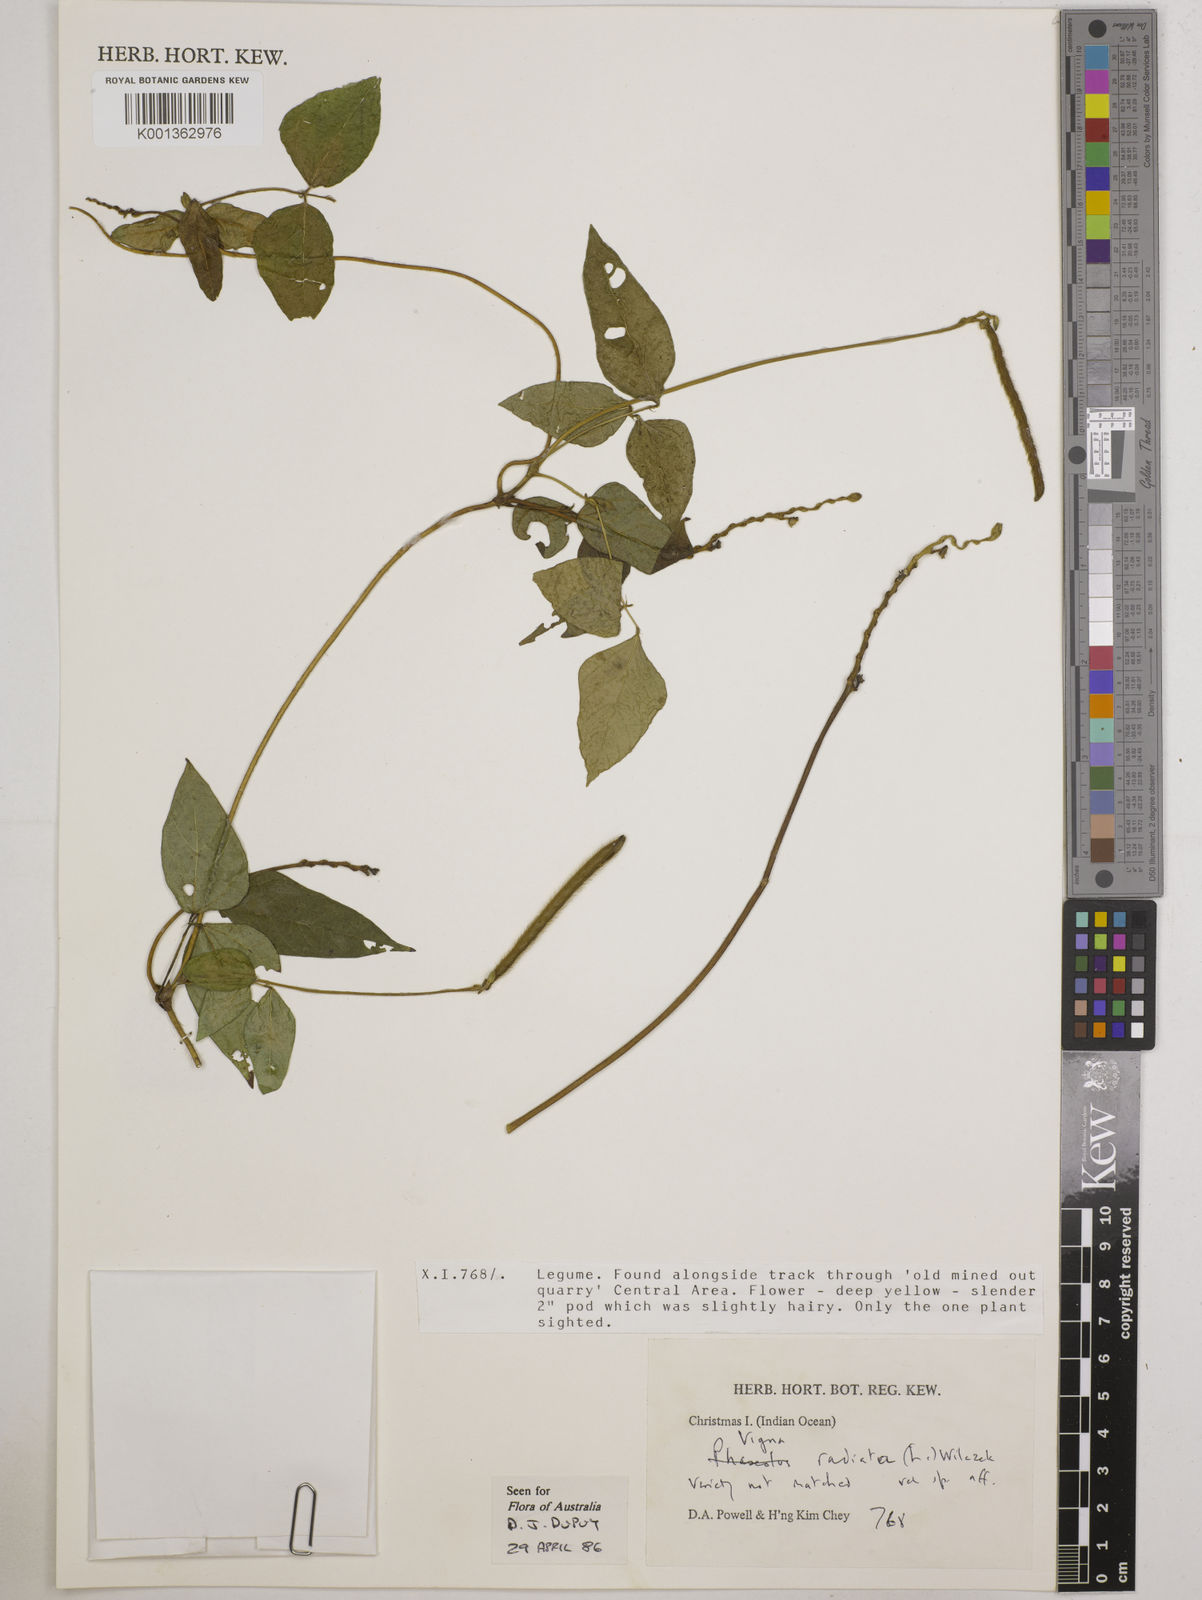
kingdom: Plantae
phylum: Tracheophyta
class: Magnoliopsida
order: Fabales
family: Fabaceae
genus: Vigna
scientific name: Vigna mungo
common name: Black gram
